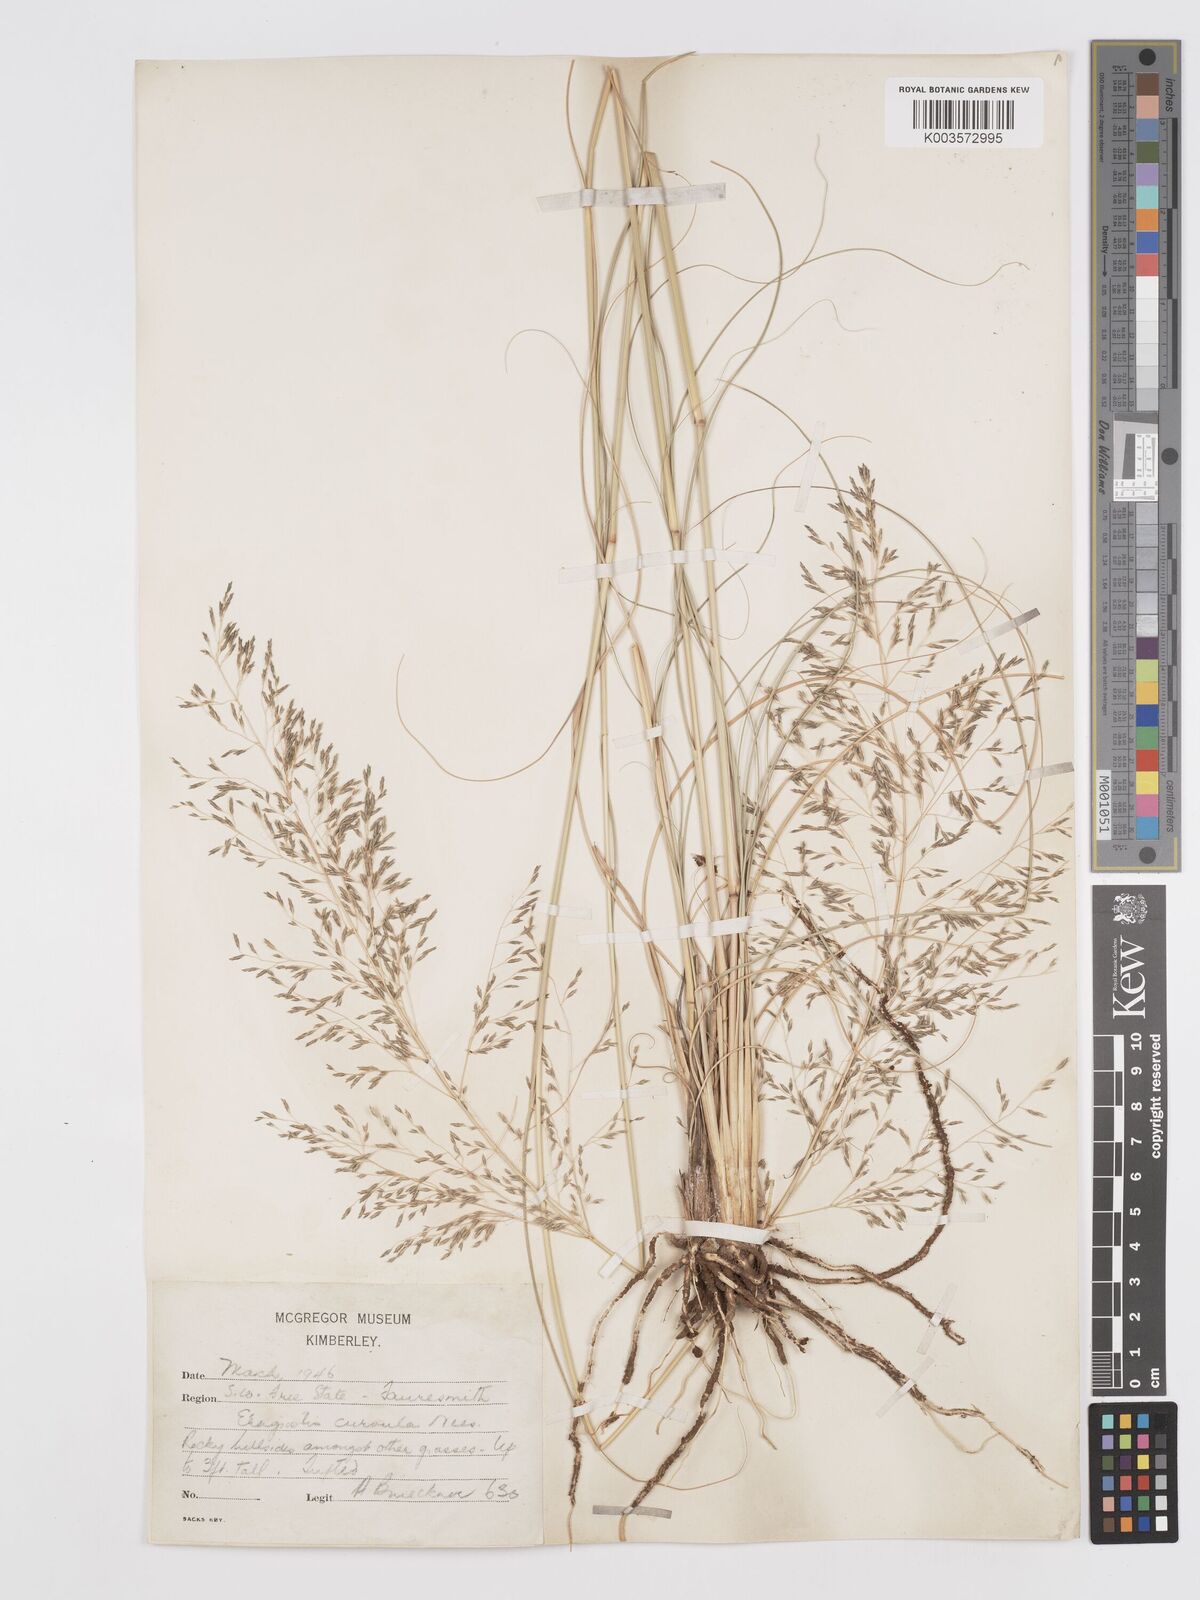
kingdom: Plantae
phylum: Tracheophyta
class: Liliopsida
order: Poales
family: Poaceae
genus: Eragrostis
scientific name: Eragrostis curvula
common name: African love-grass
